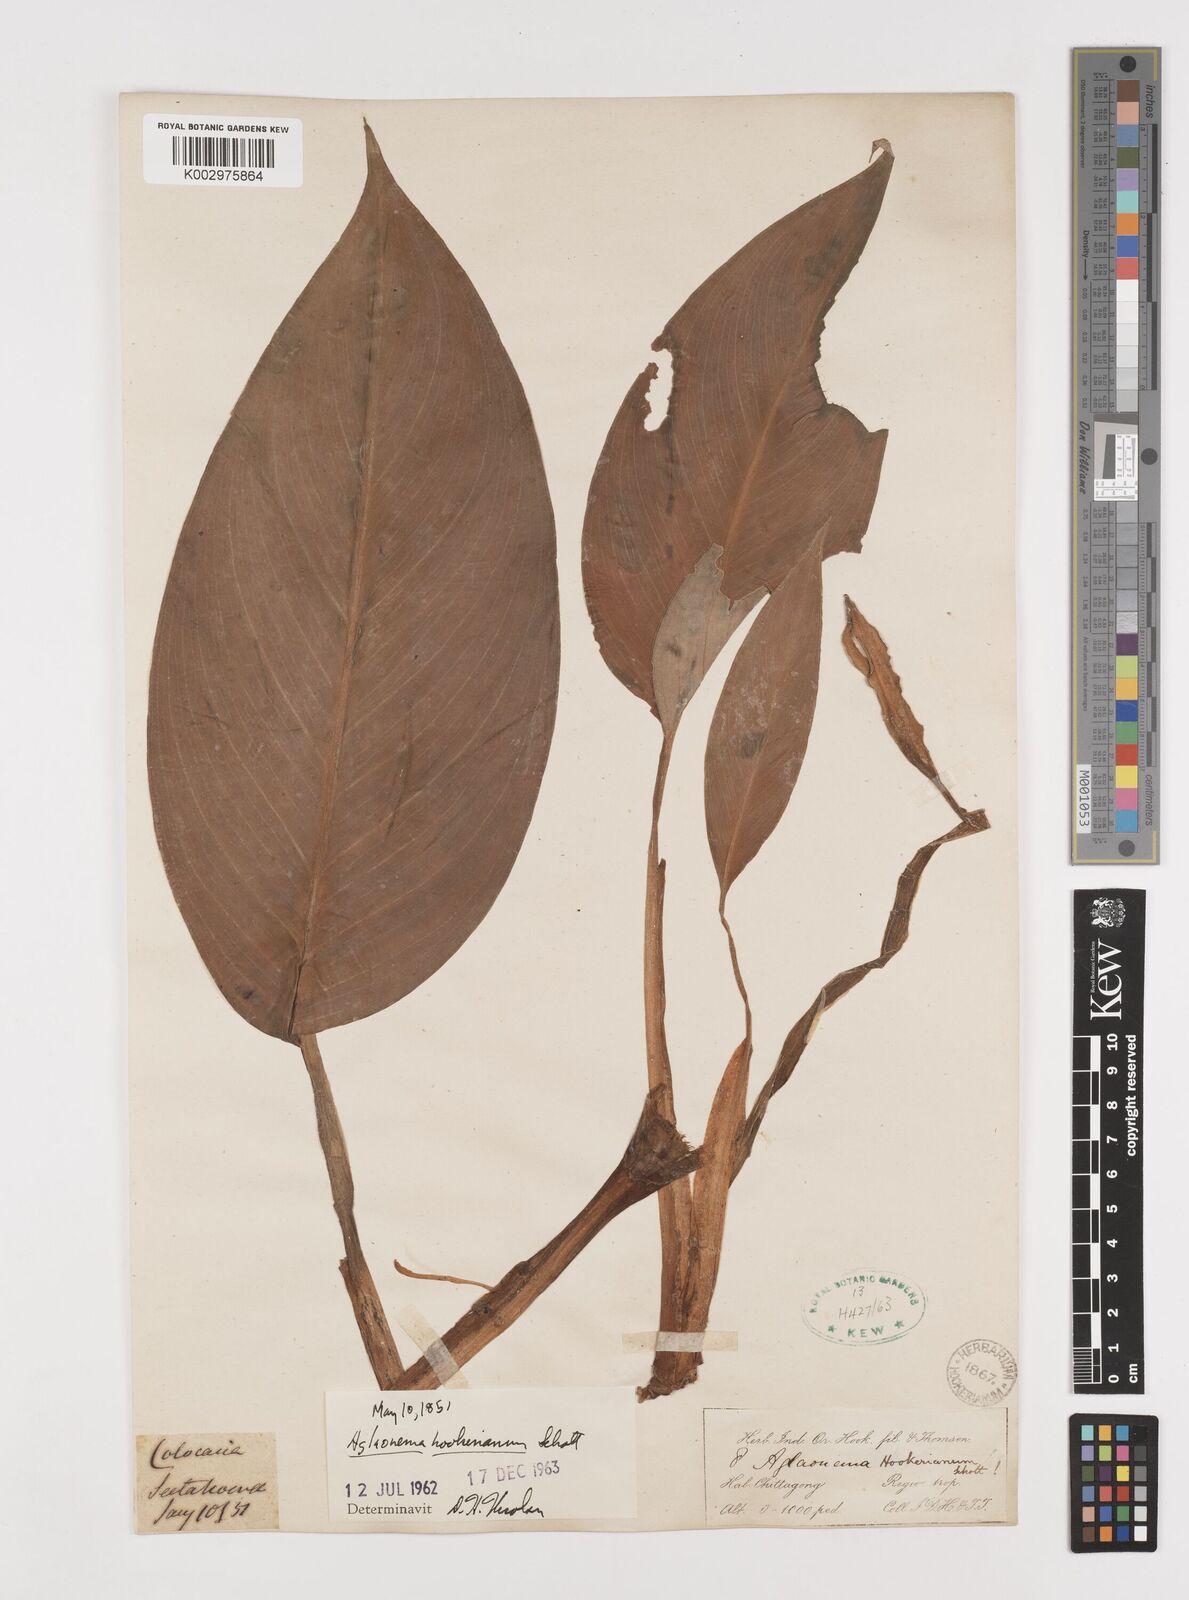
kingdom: Plantae
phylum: Tracheophyta
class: Liliopsida
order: Alismatales
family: Araceae
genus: Aglaonema
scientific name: Aglaonema hookerianum
